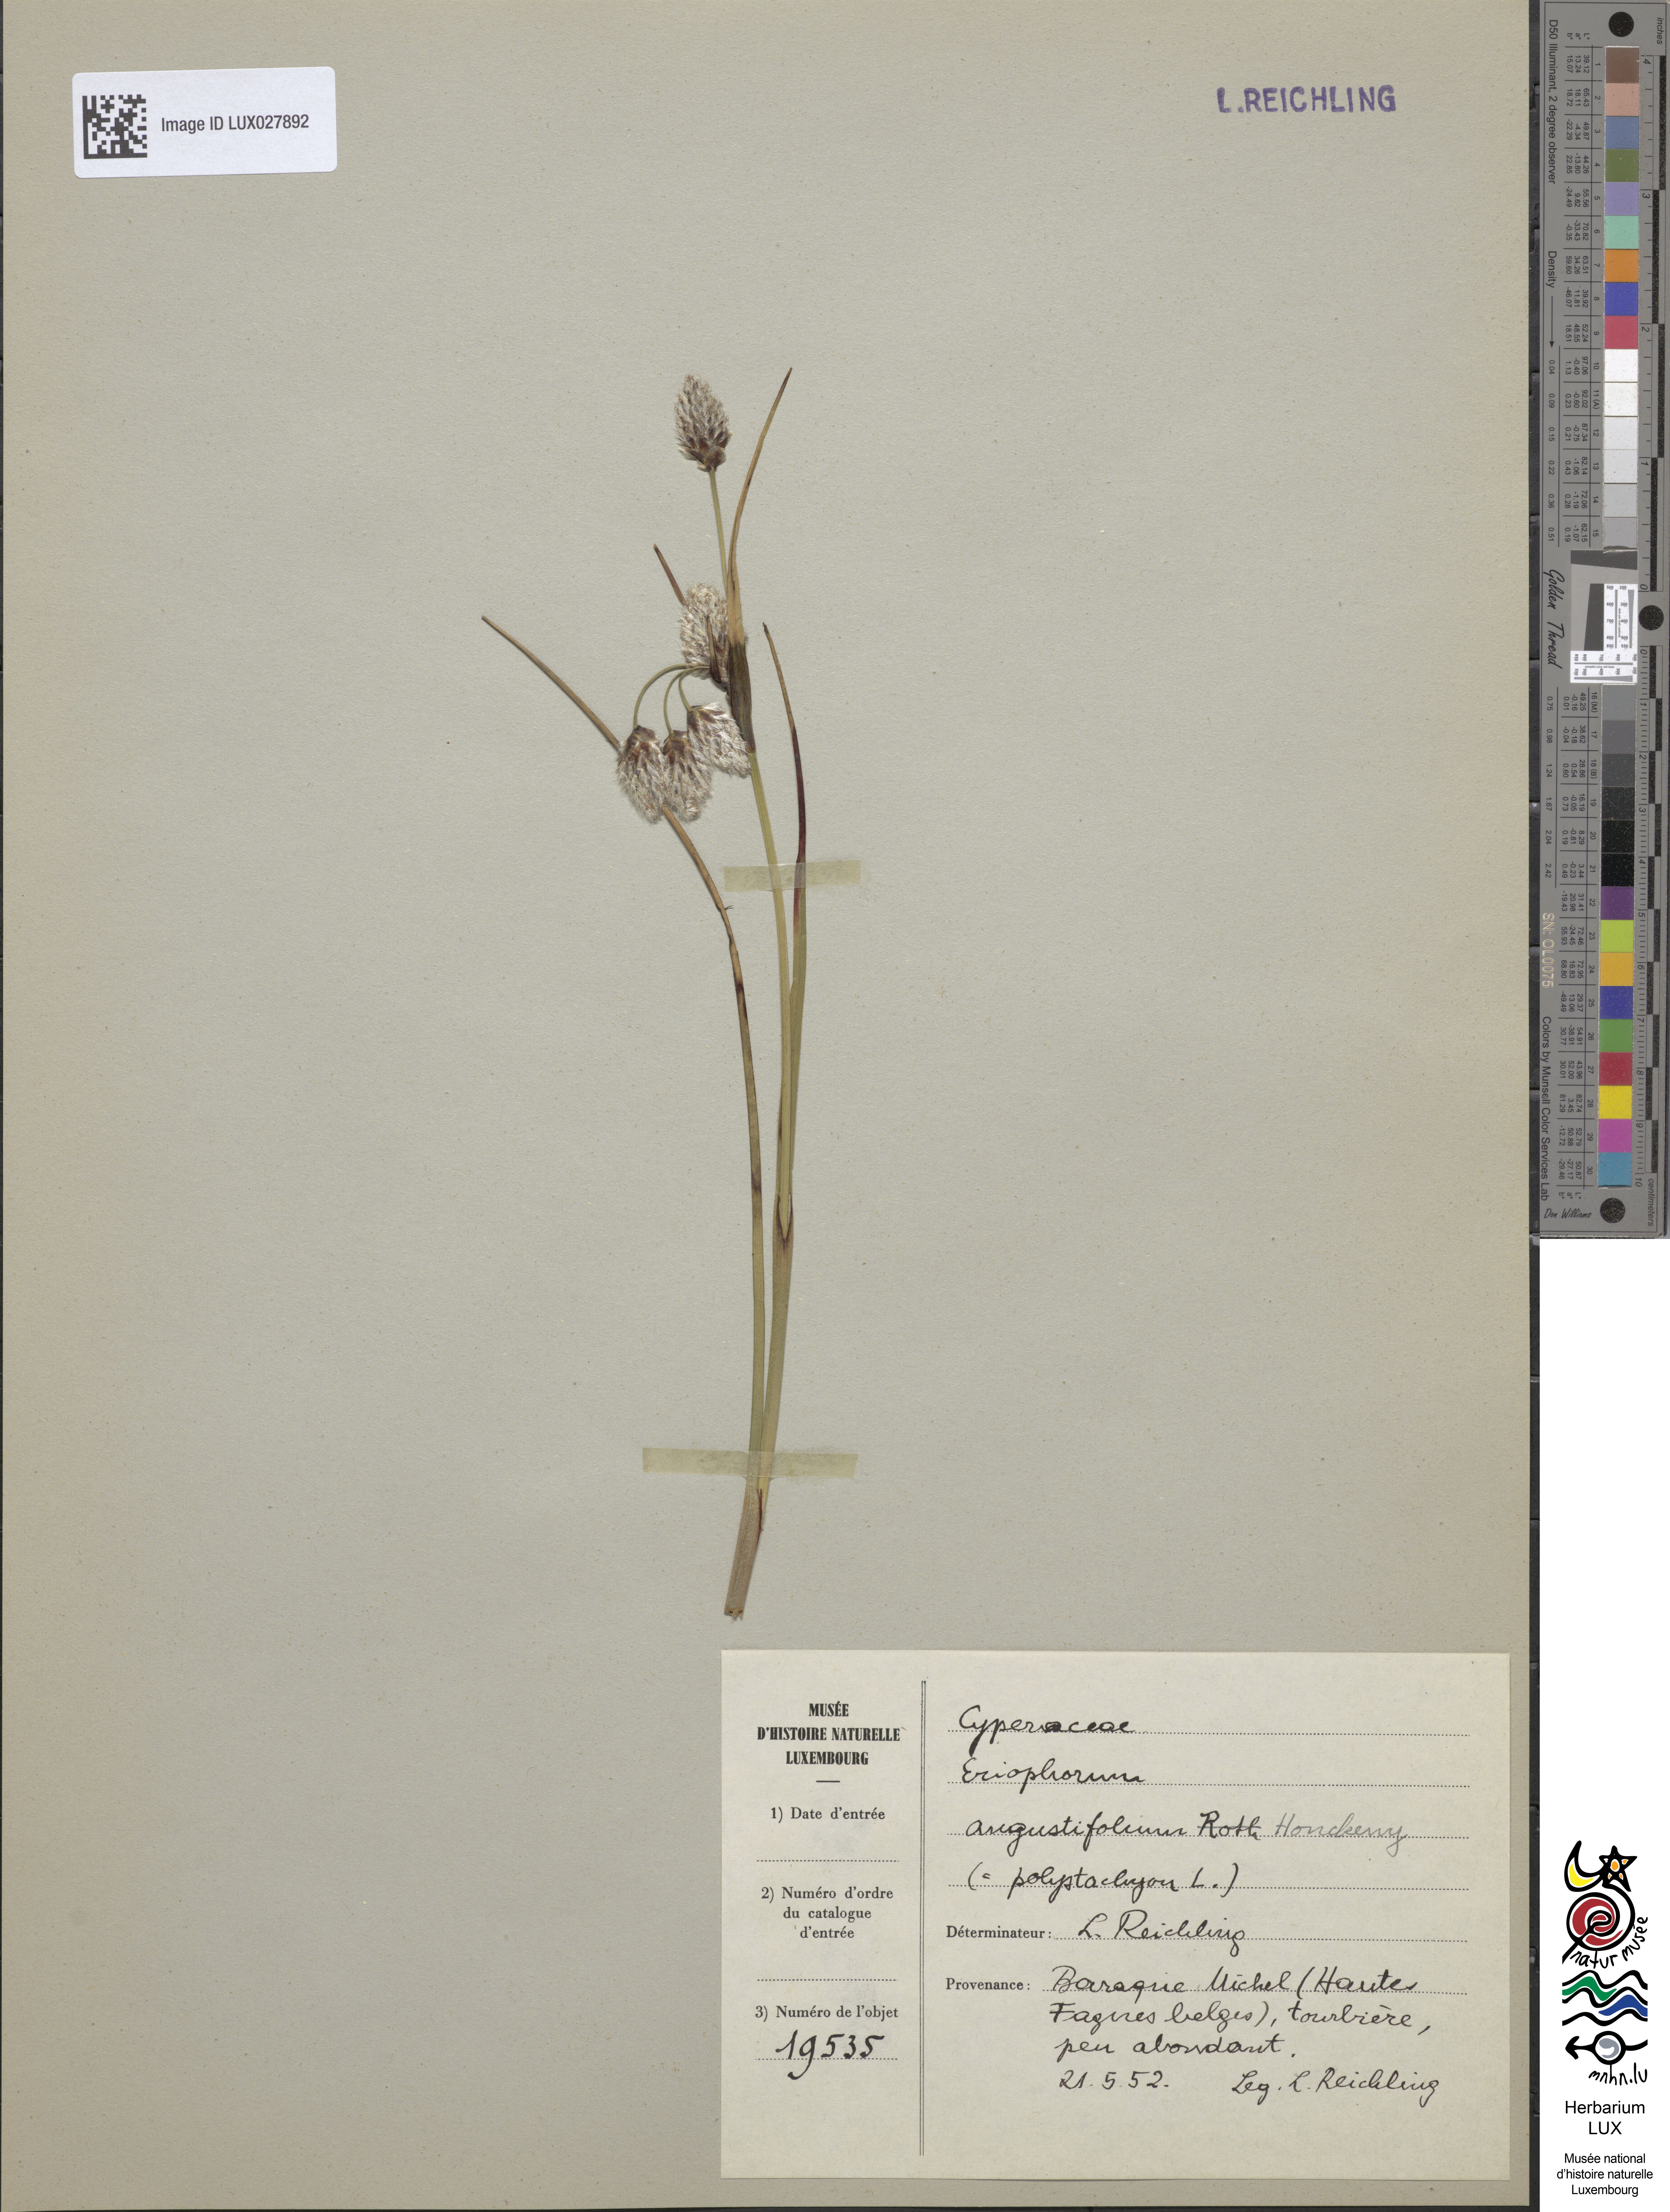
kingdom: Plantae
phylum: Tracheophyta
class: Liliopsida
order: Poales
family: Cyperaceae
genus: Eriophorum
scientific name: Eriophorum angustifolium
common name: Common cottongrass
